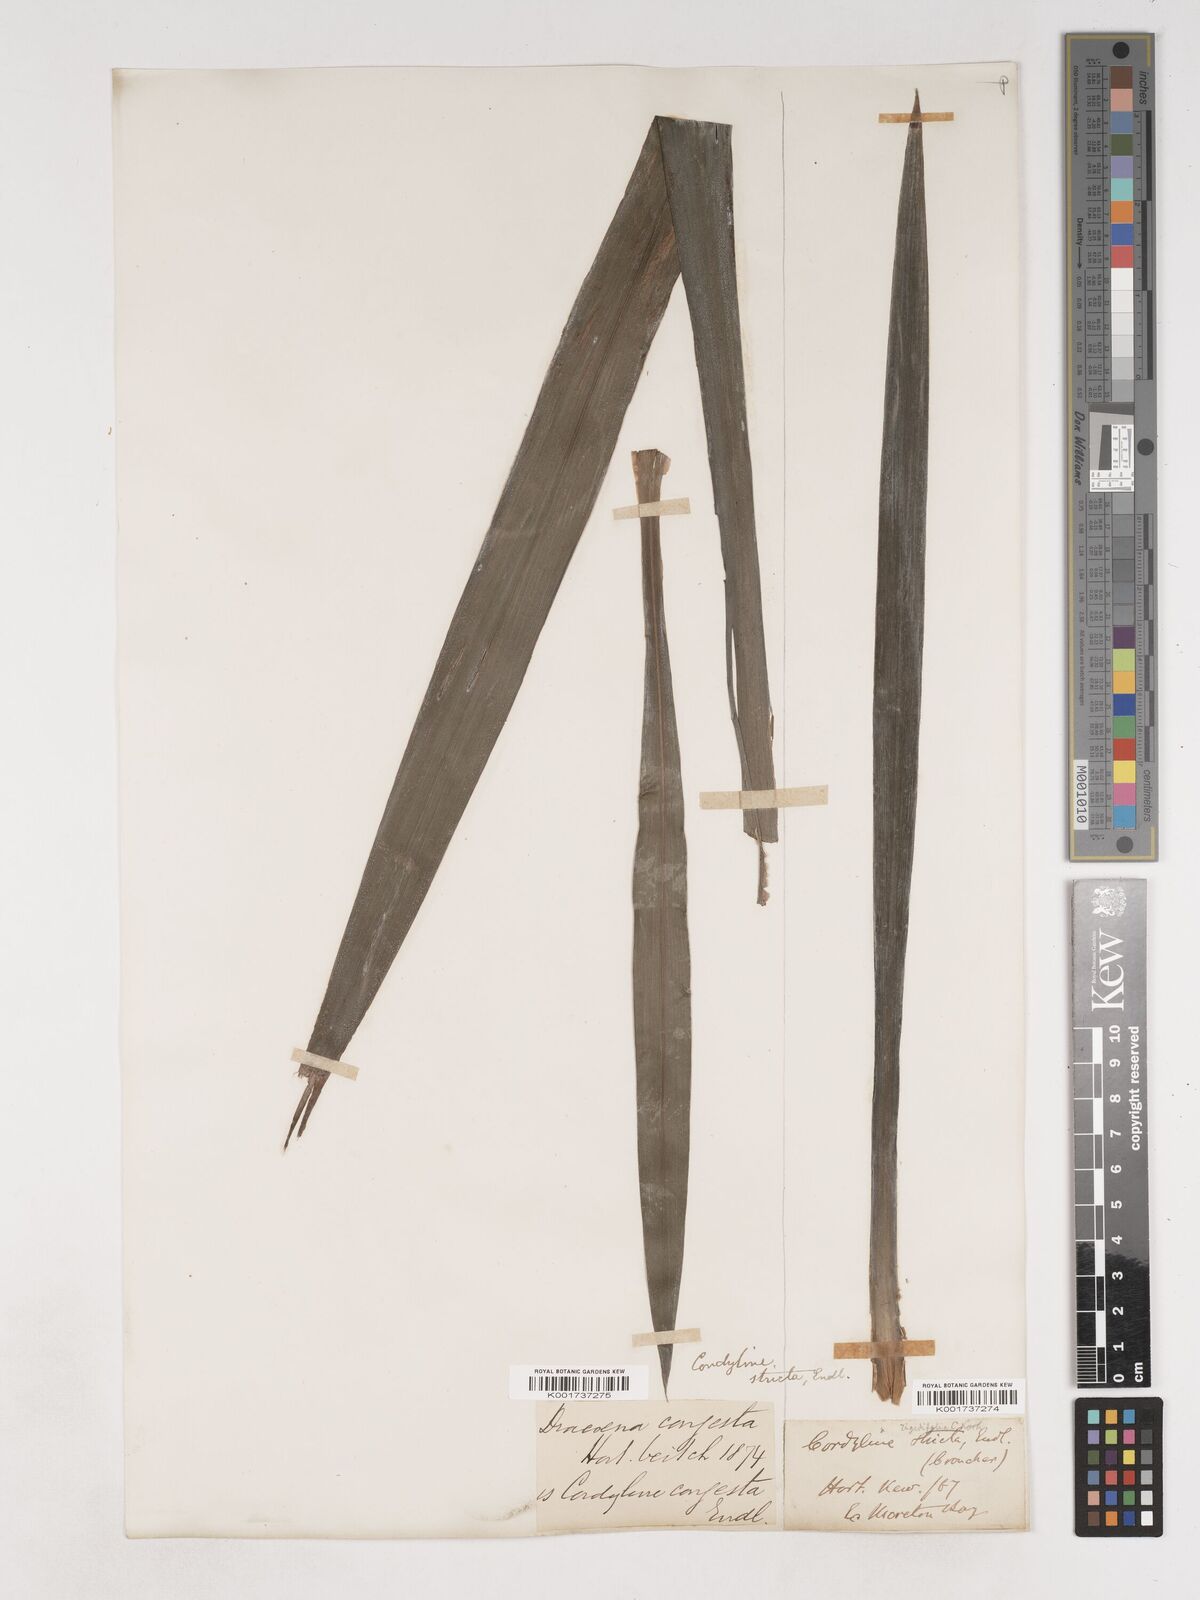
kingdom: Plantae
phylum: Tracheophyta
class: Liliopsida
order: Asparagales
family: Asparagaceae
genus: Cordyline
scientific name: Cordyline stricta
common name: Narrow-leaf palm-lily
